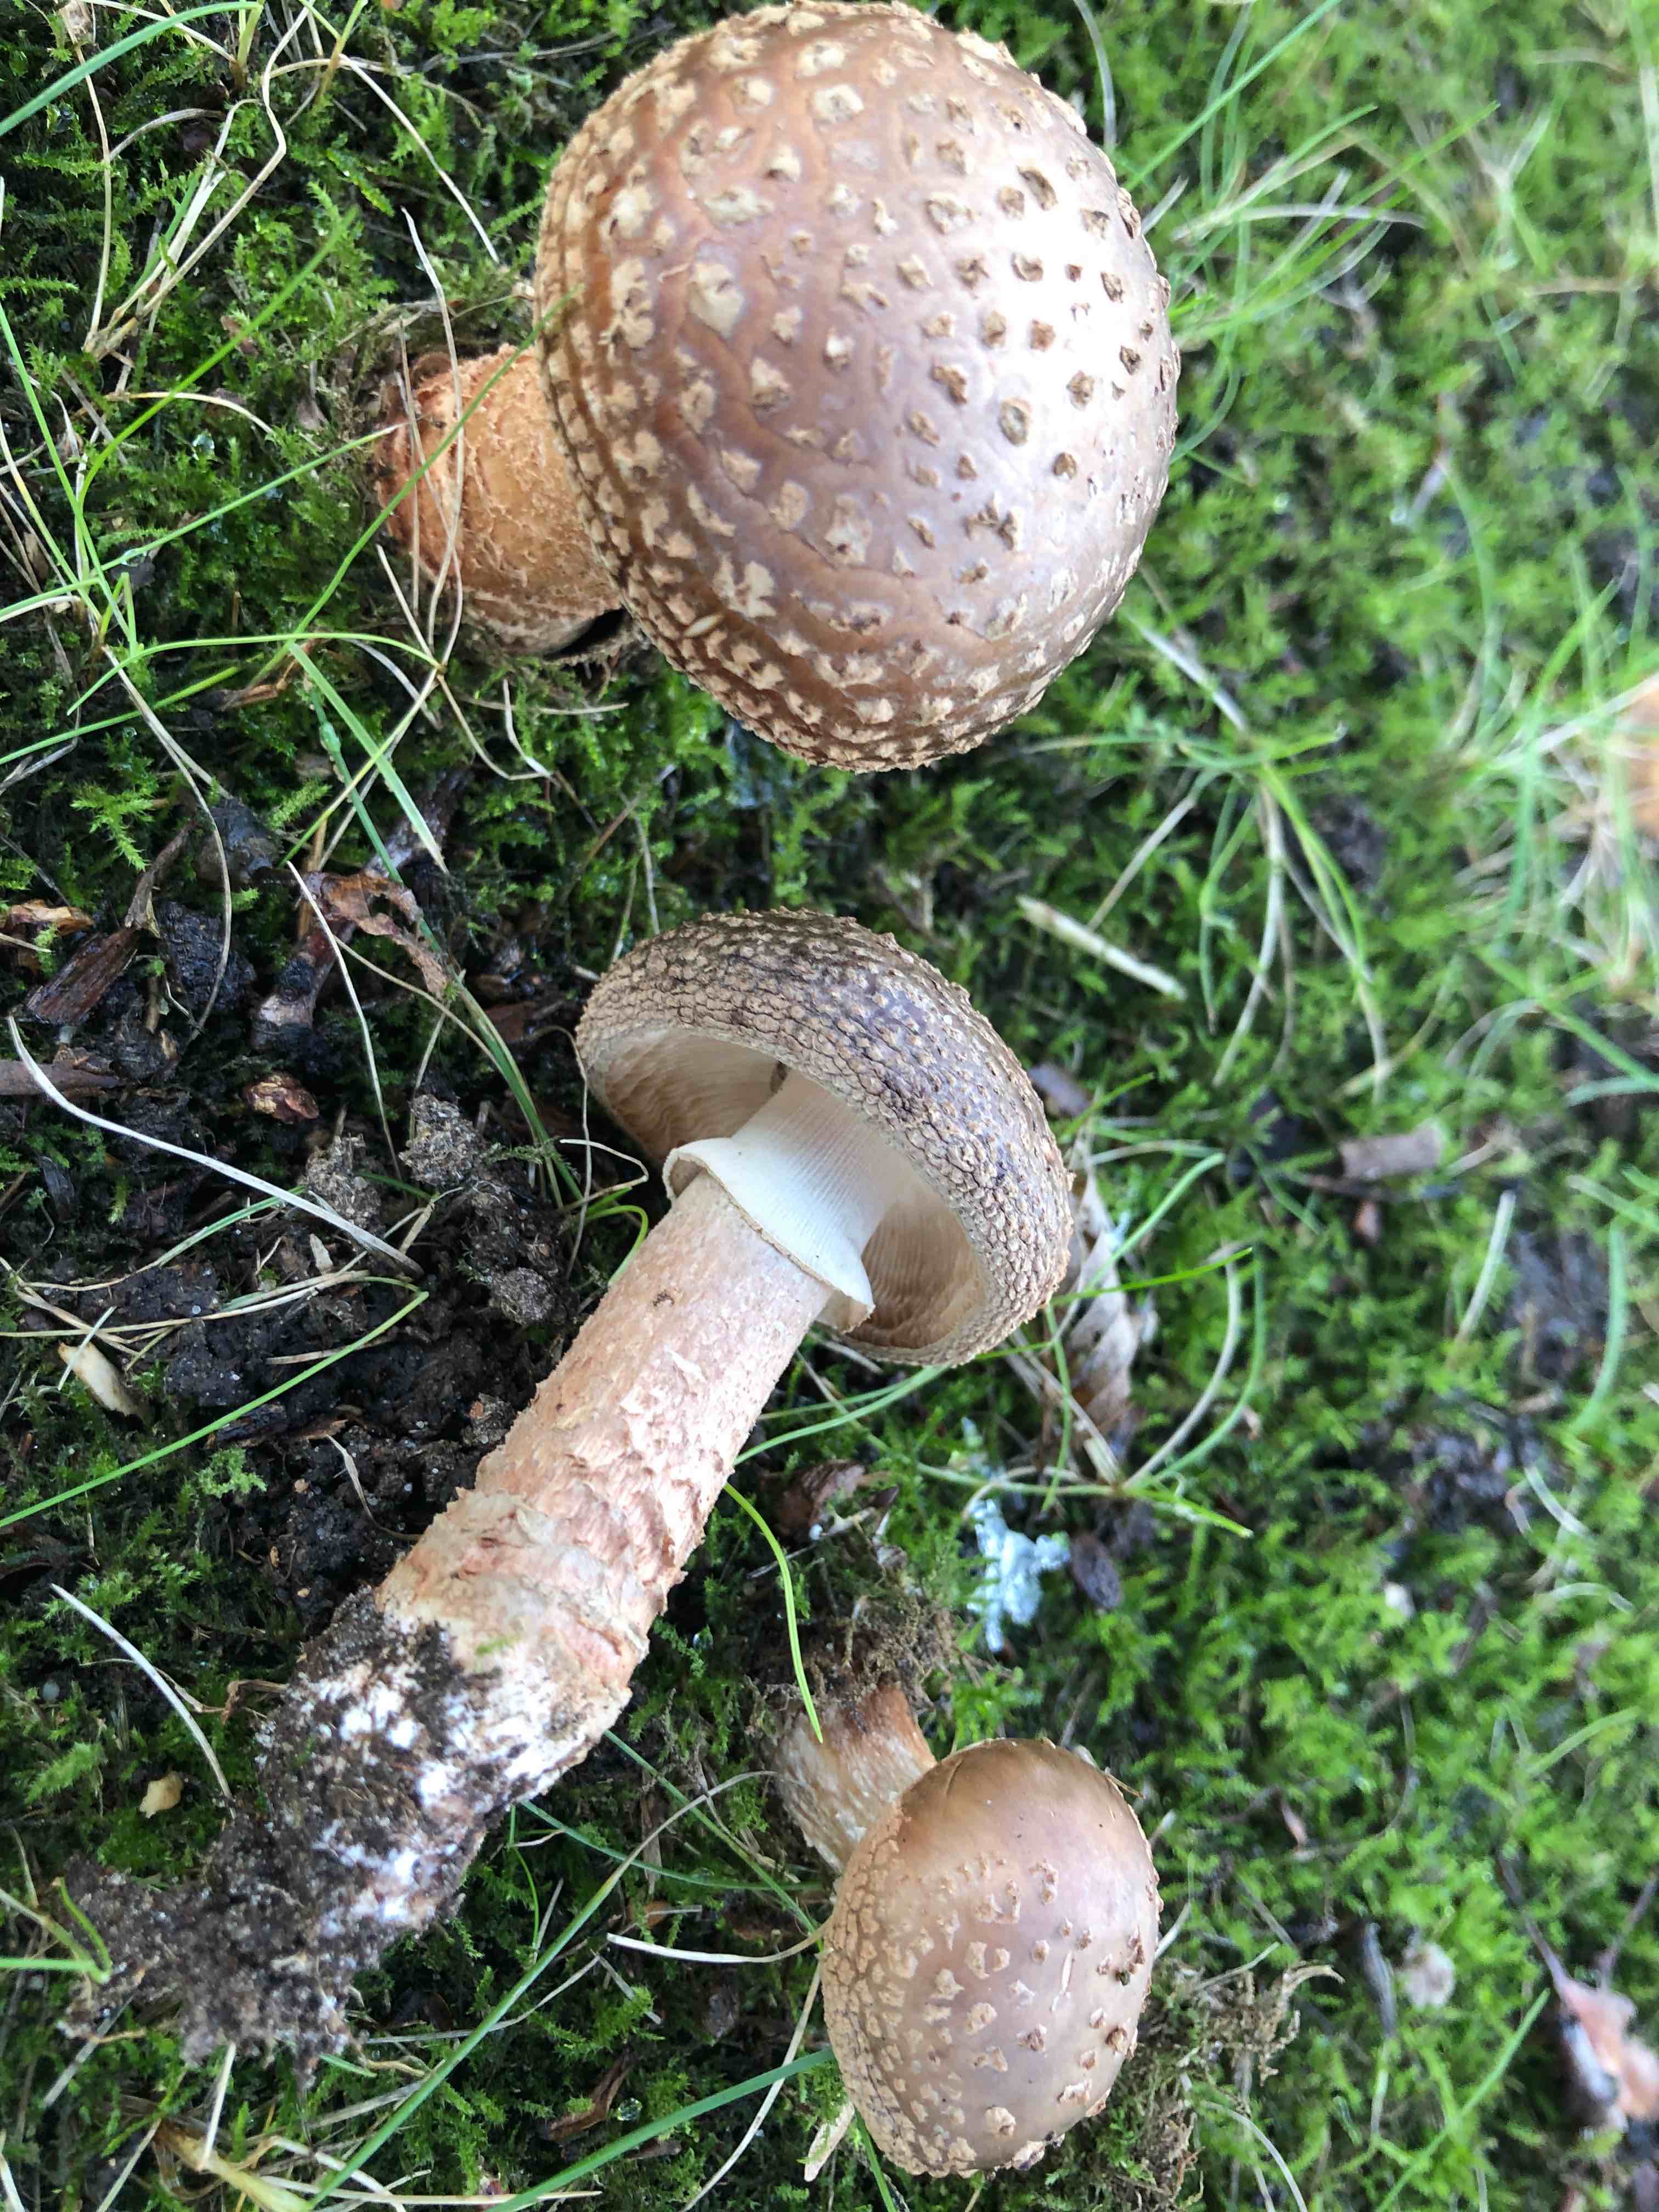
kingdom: Fungi
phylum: Basidiomycota
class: Agaricomycetes
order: Agaricales
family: Amanitaceae
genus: Amanita
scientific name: Amanita rubescens
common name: rødmende fluesvamp
